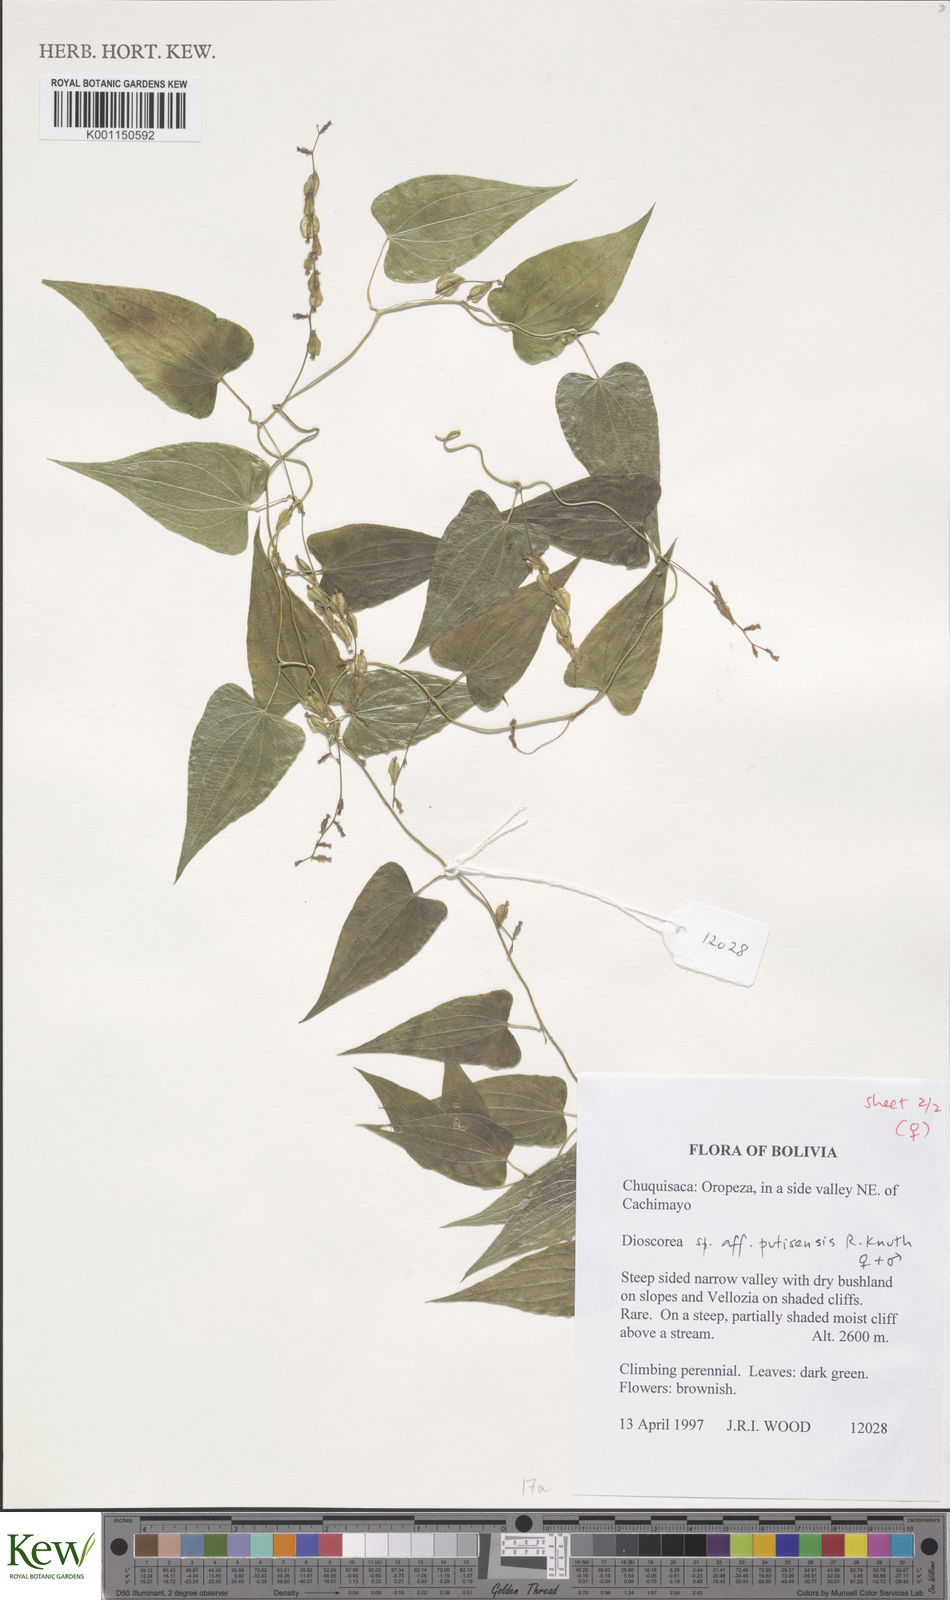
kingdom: Plantae
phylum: Tracheophyta
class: Liliopsida
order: Dioscoreales
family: Dioscoreaceae
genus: Dioscorea
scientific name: Dioscorea putisensis
